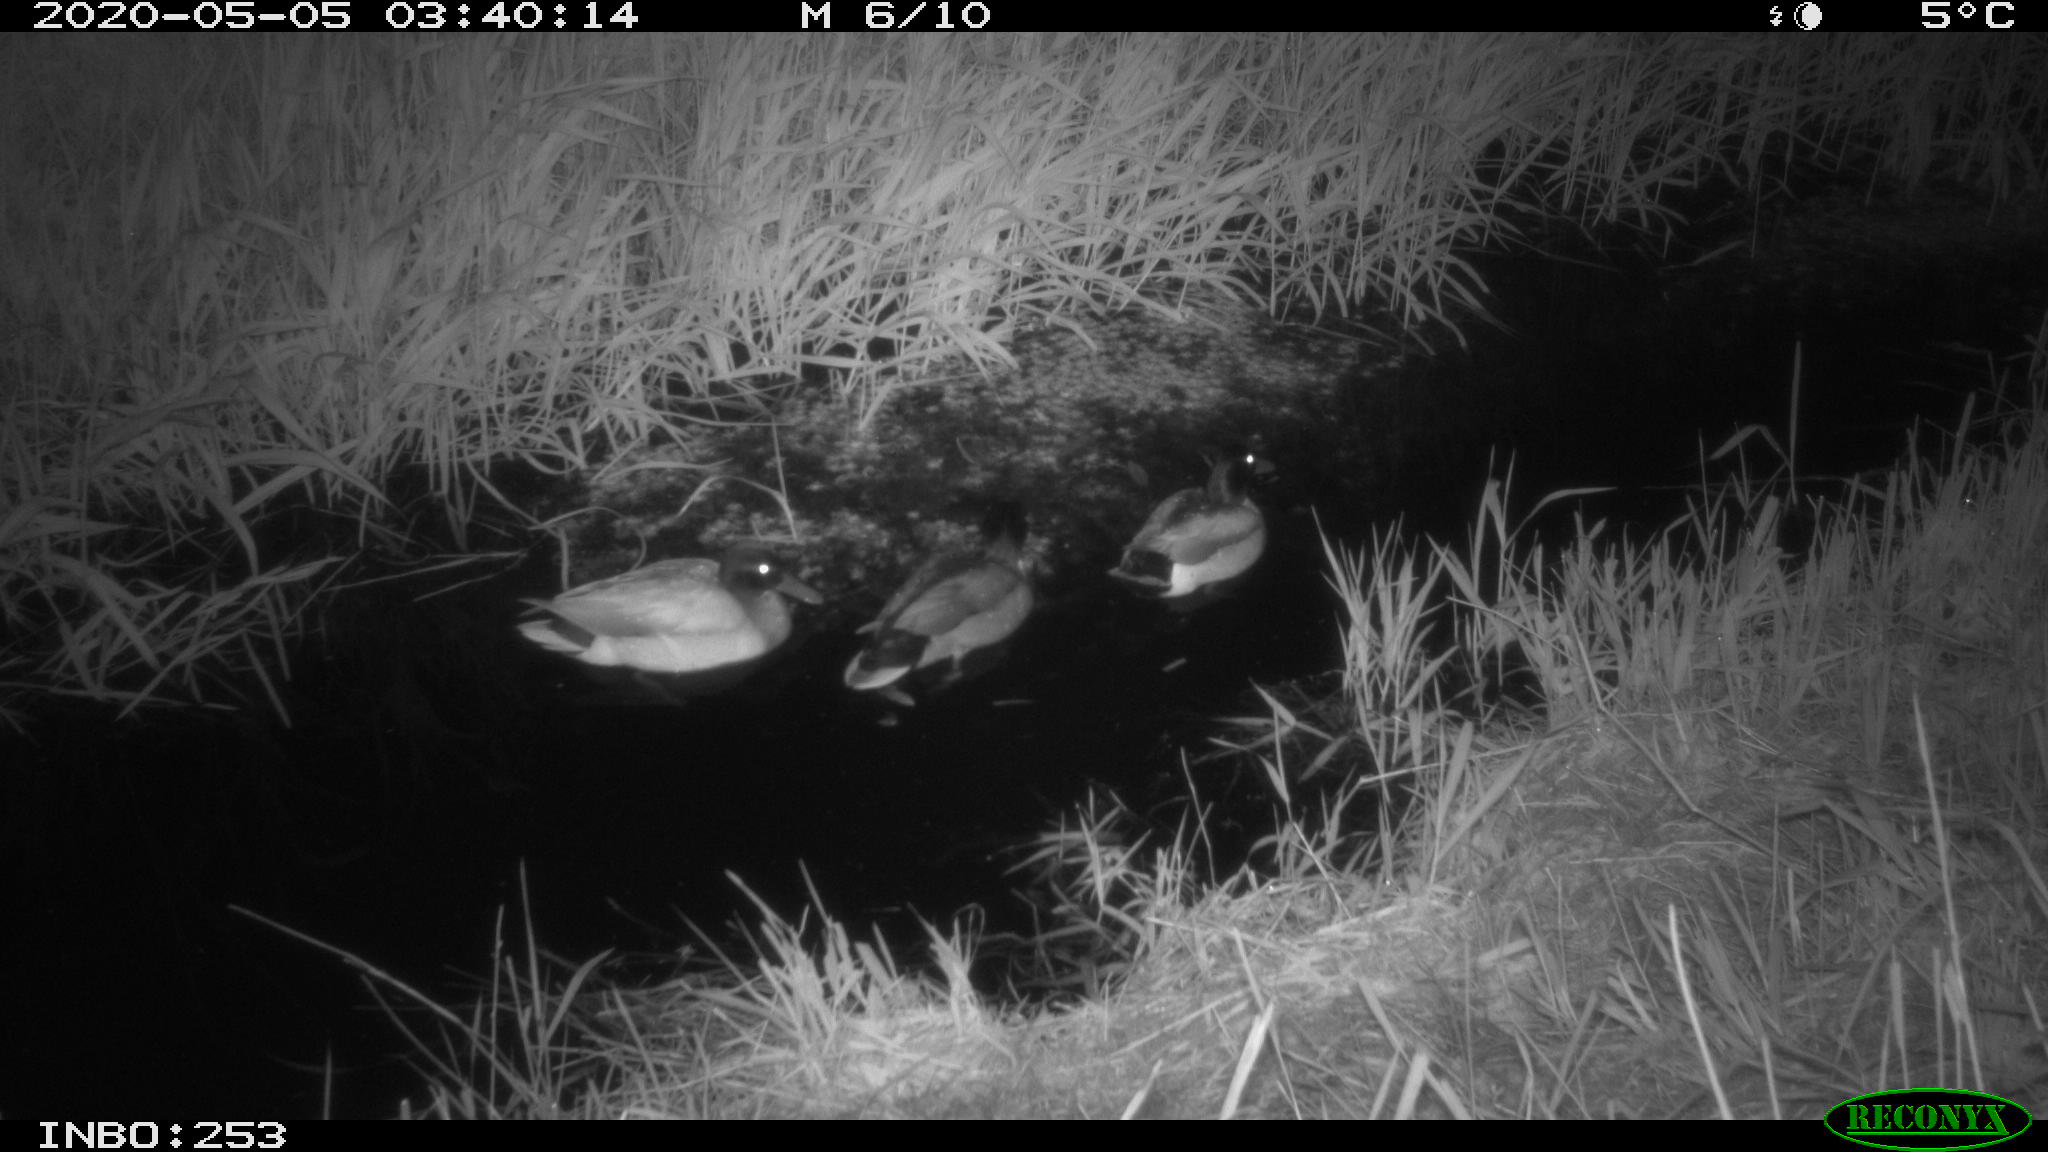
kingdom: Animalia
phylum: Chordata
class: Aves
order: Anseriformes
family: Anatidae
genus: Anas
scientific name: Anas platyrhynchos
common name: Mallard
